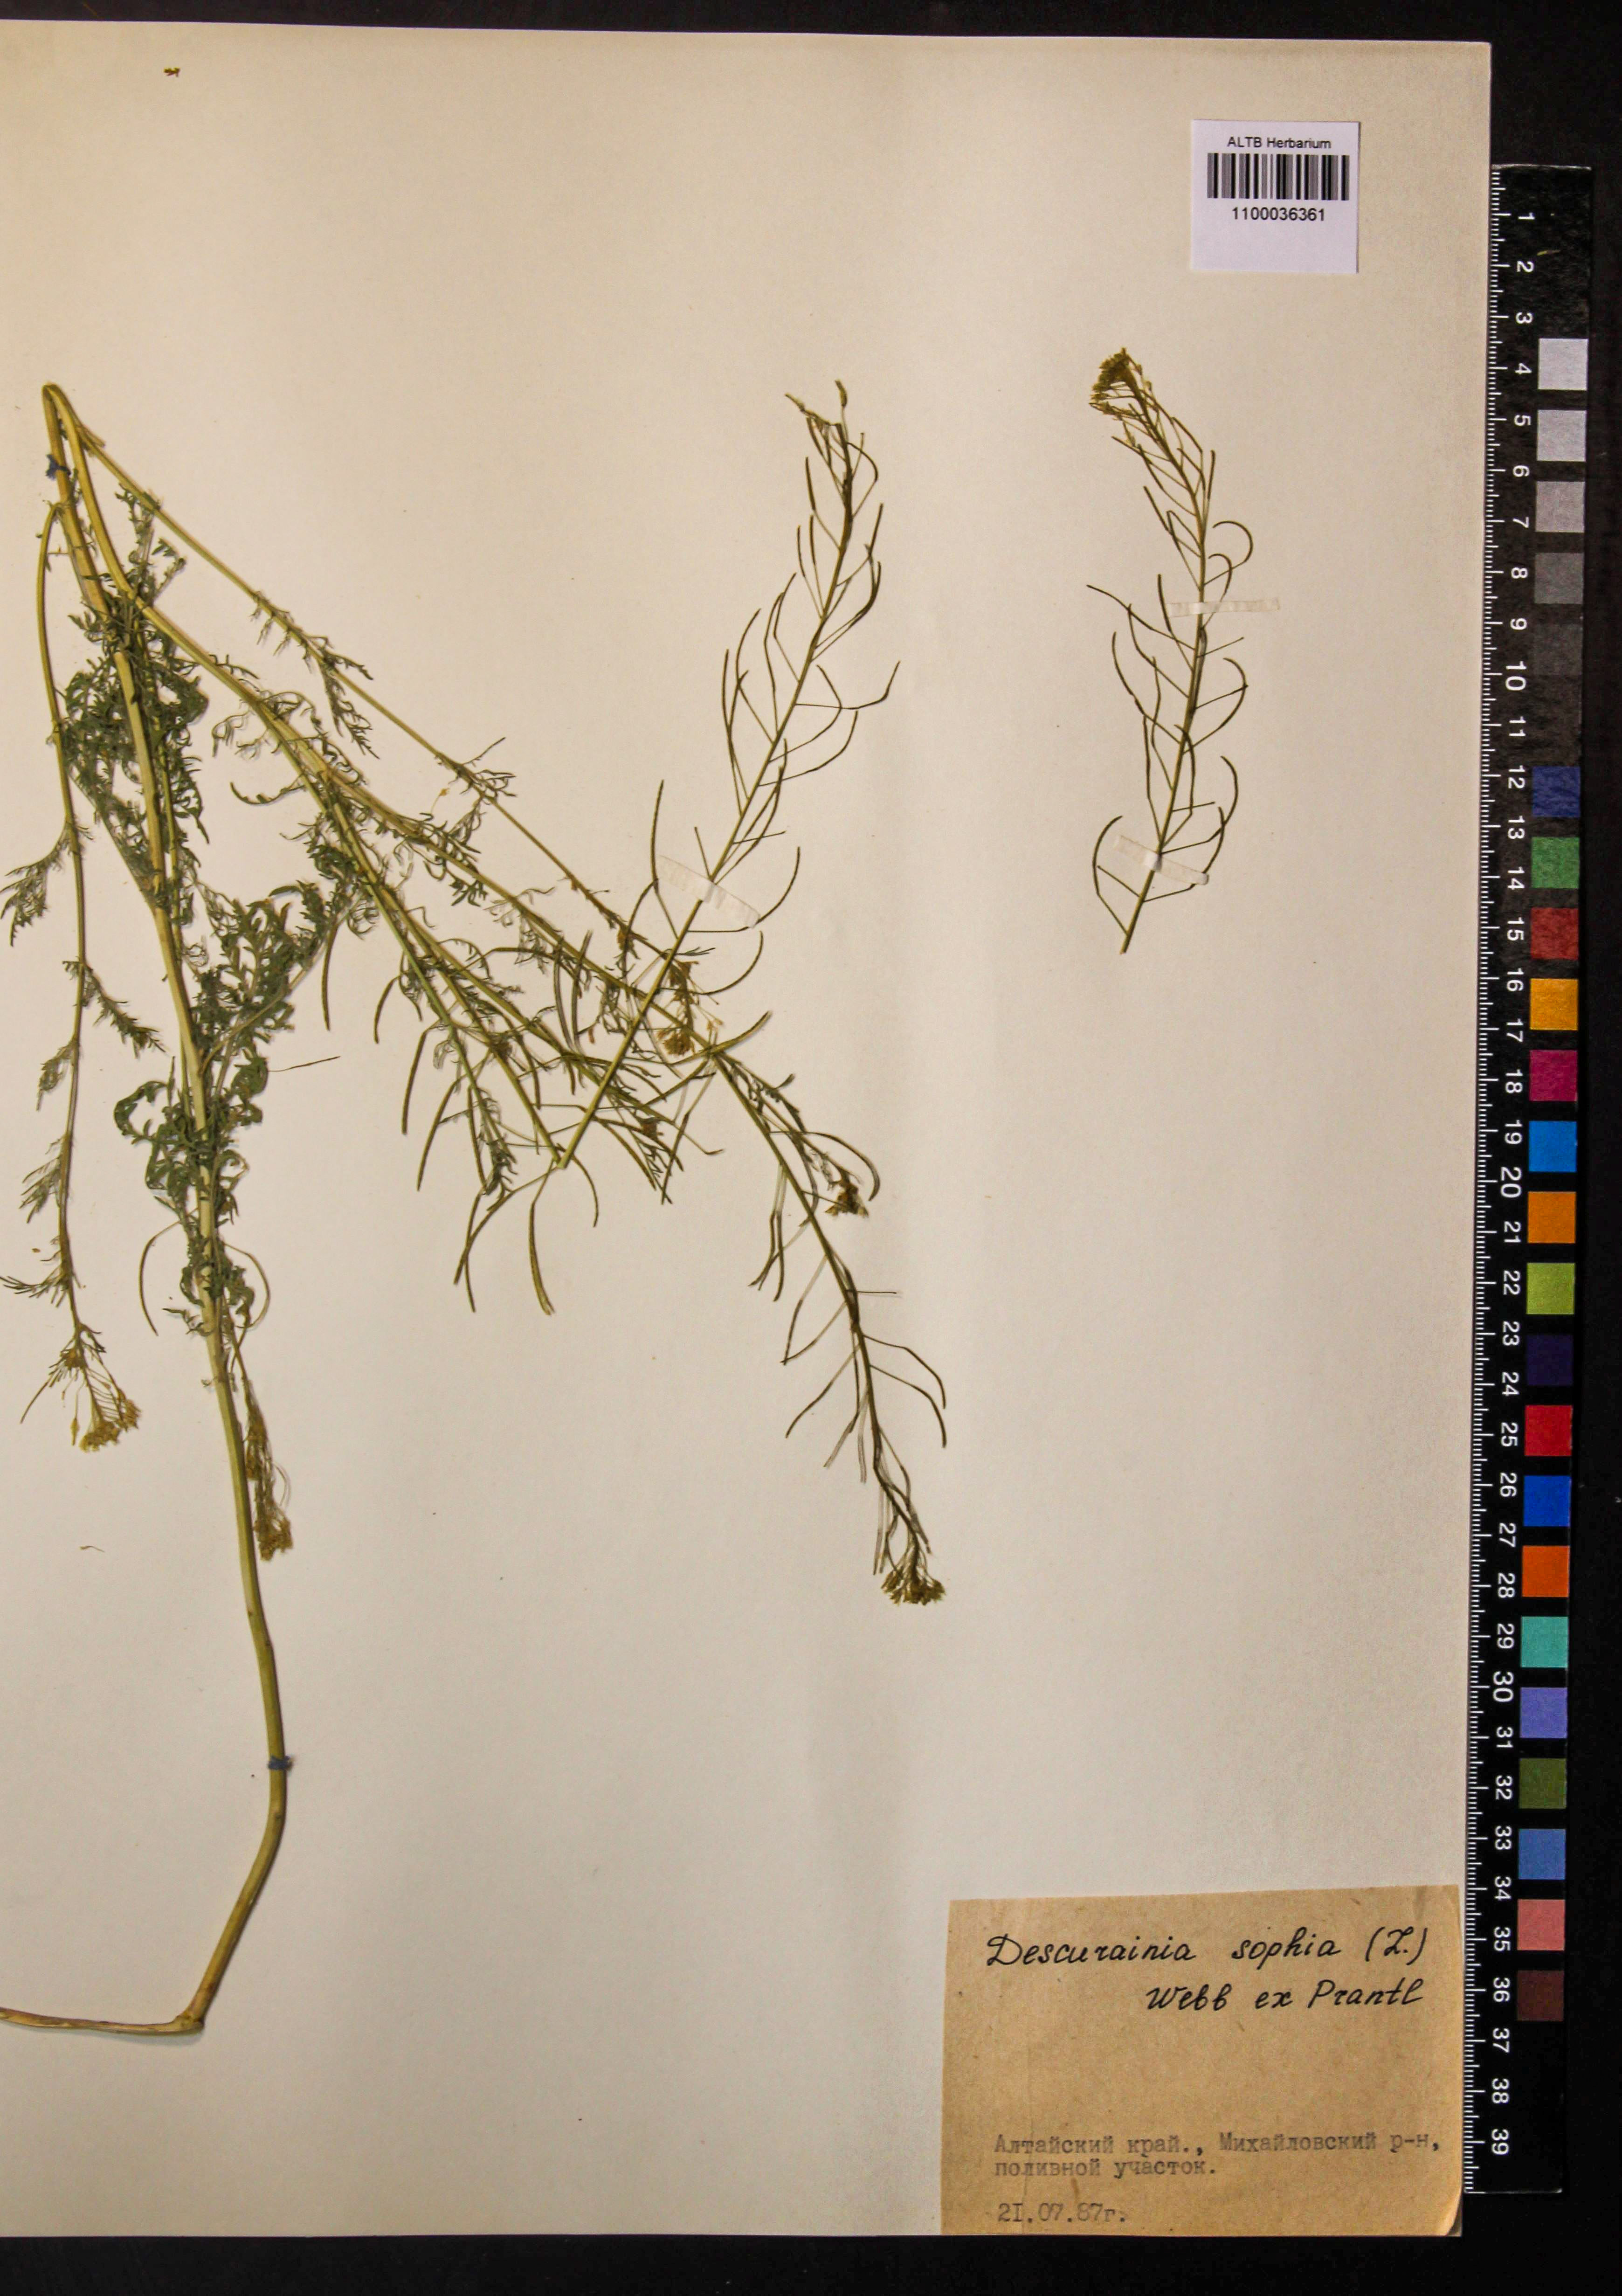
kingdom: Plantae
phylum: Tracheophyta
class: Magnoliopsida
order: Brassicales
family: Brassicaceae
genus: Descurainia
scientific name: Descurainia sophia
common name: Flixweed
